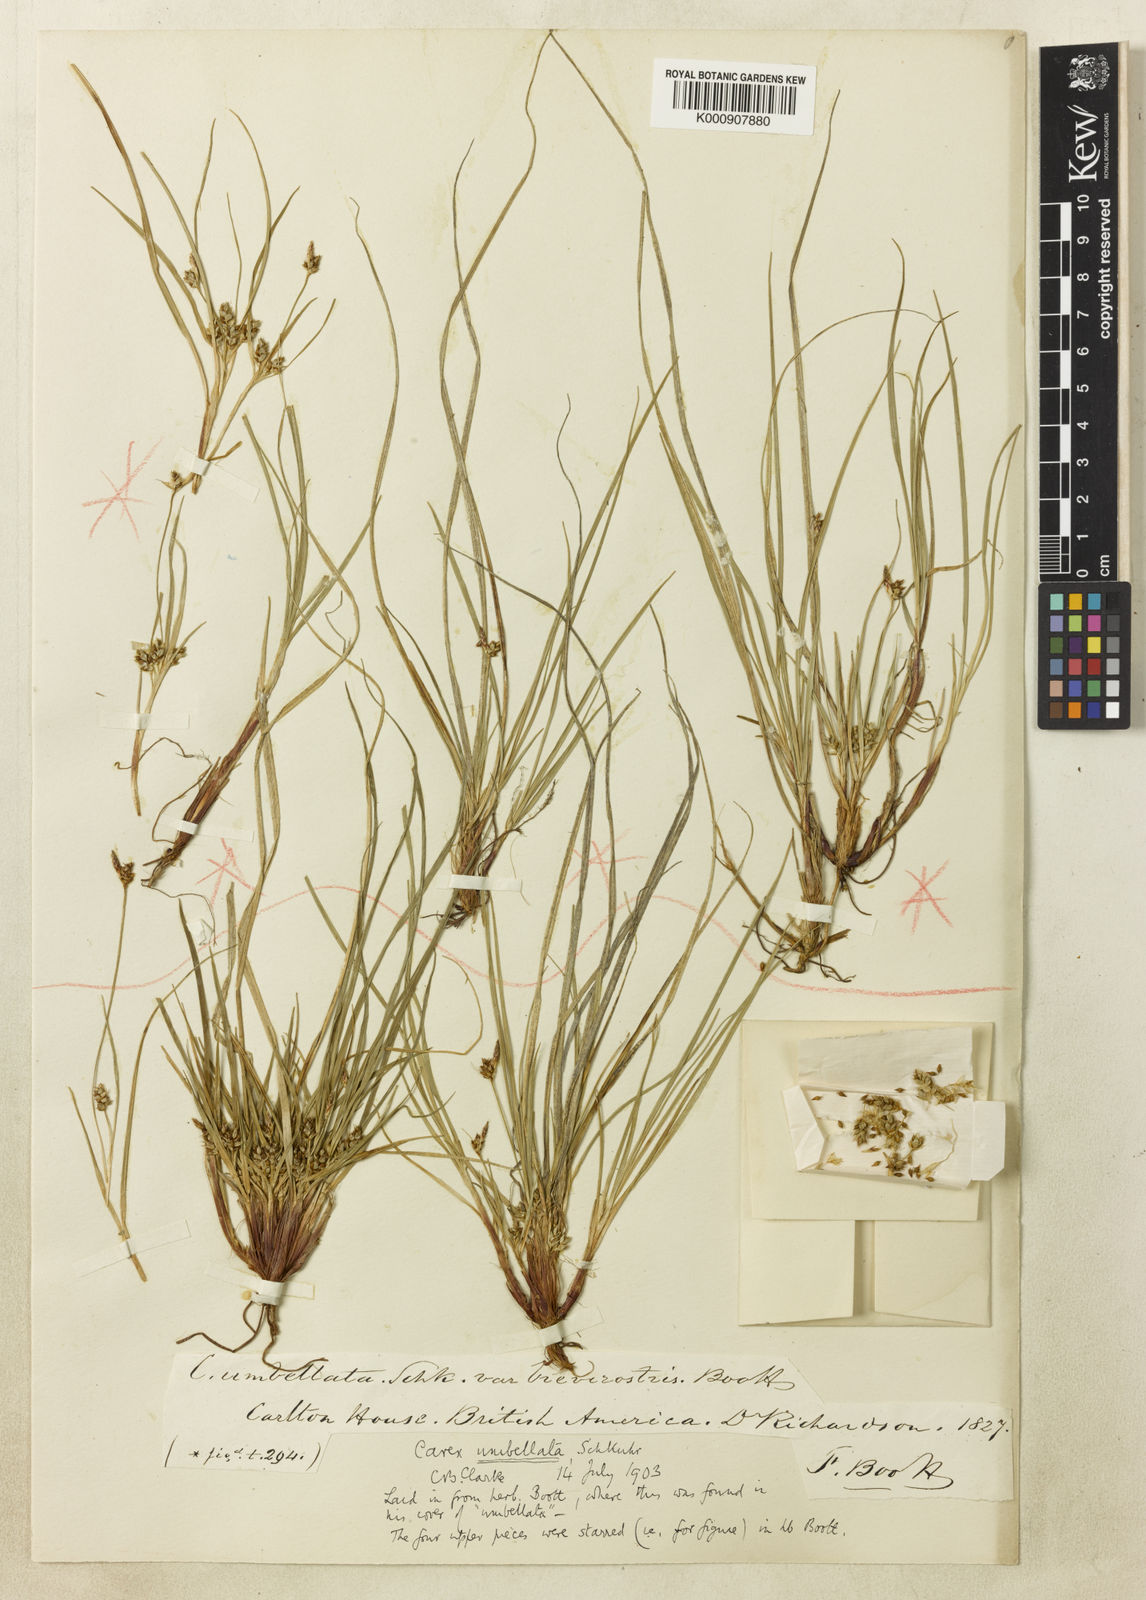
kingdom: Plantae
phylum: Tracheophyta
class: Liliopsida
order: Poales
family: Cyperaceae
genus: Carex
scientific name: Carex
